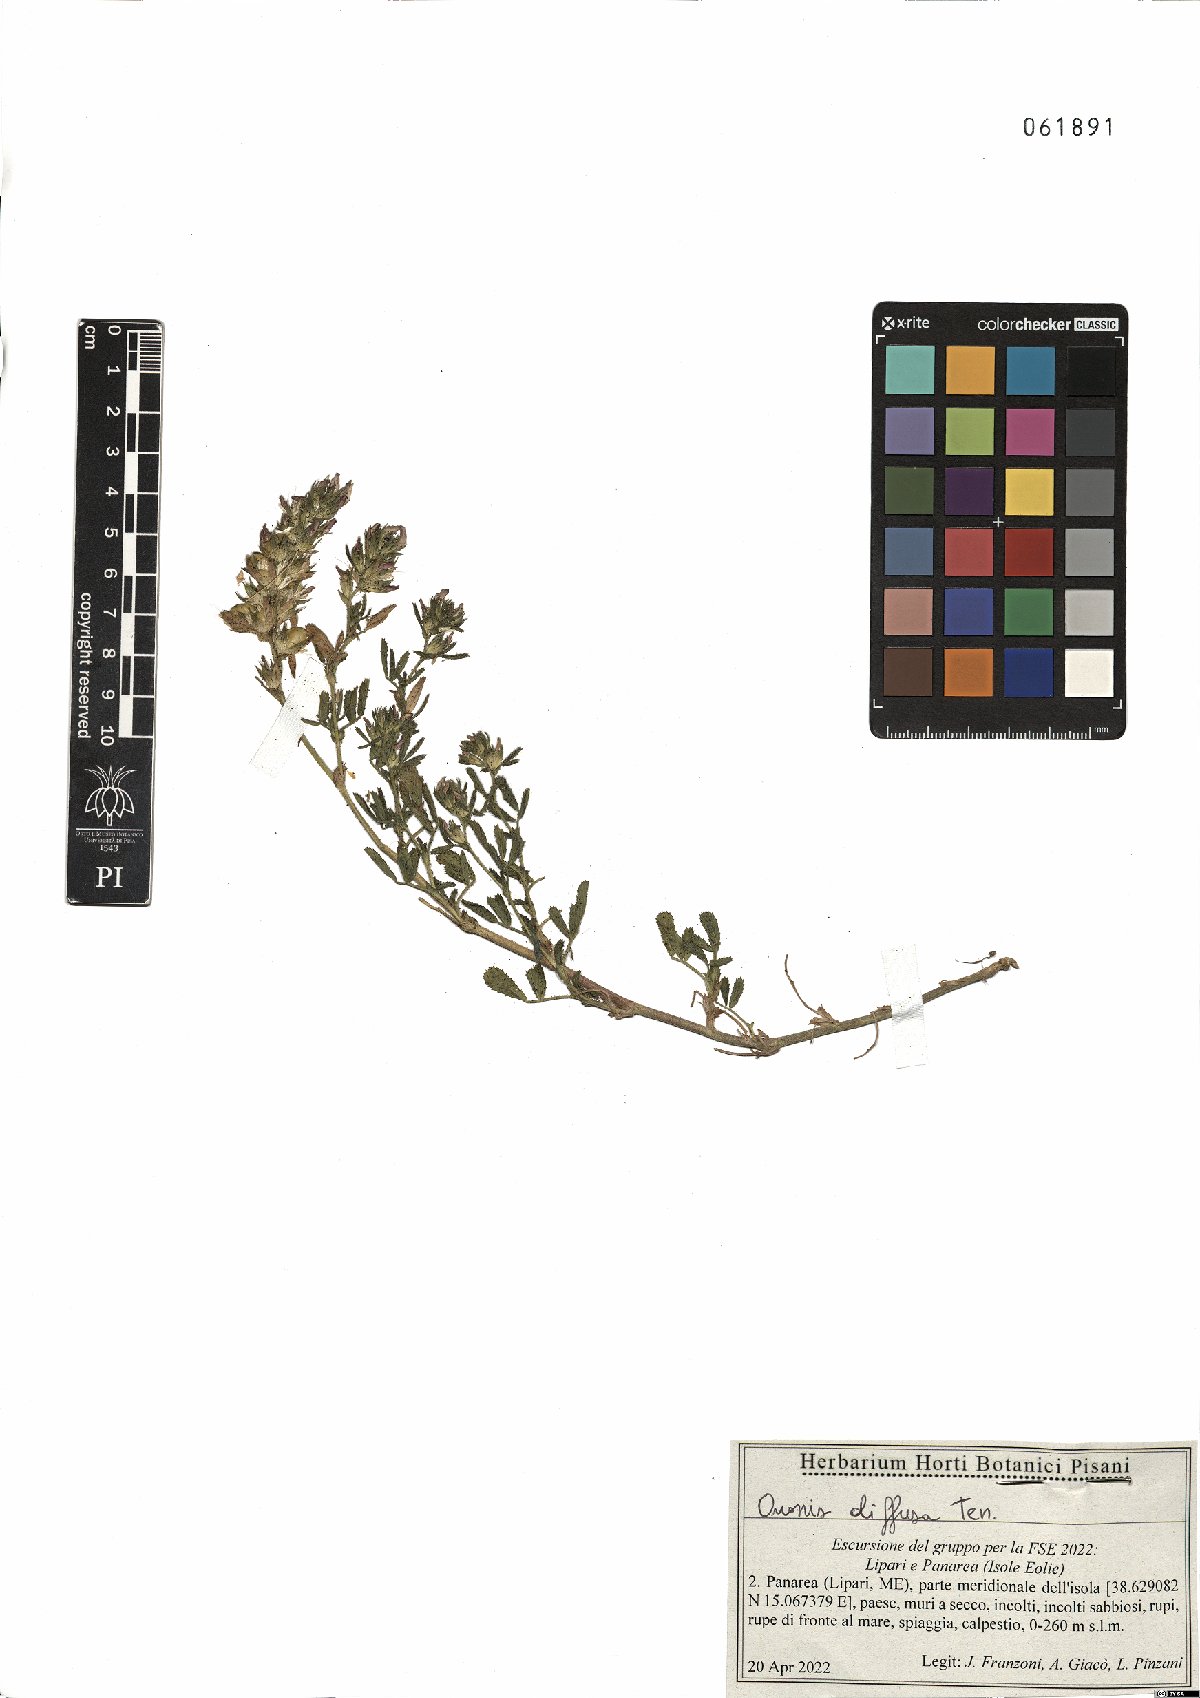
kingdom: Plantae
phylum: Tracheophyta
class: Magnoliopsida
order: Fabales
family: Fabaceae
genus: Ononis
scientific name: Ononis diffusa
